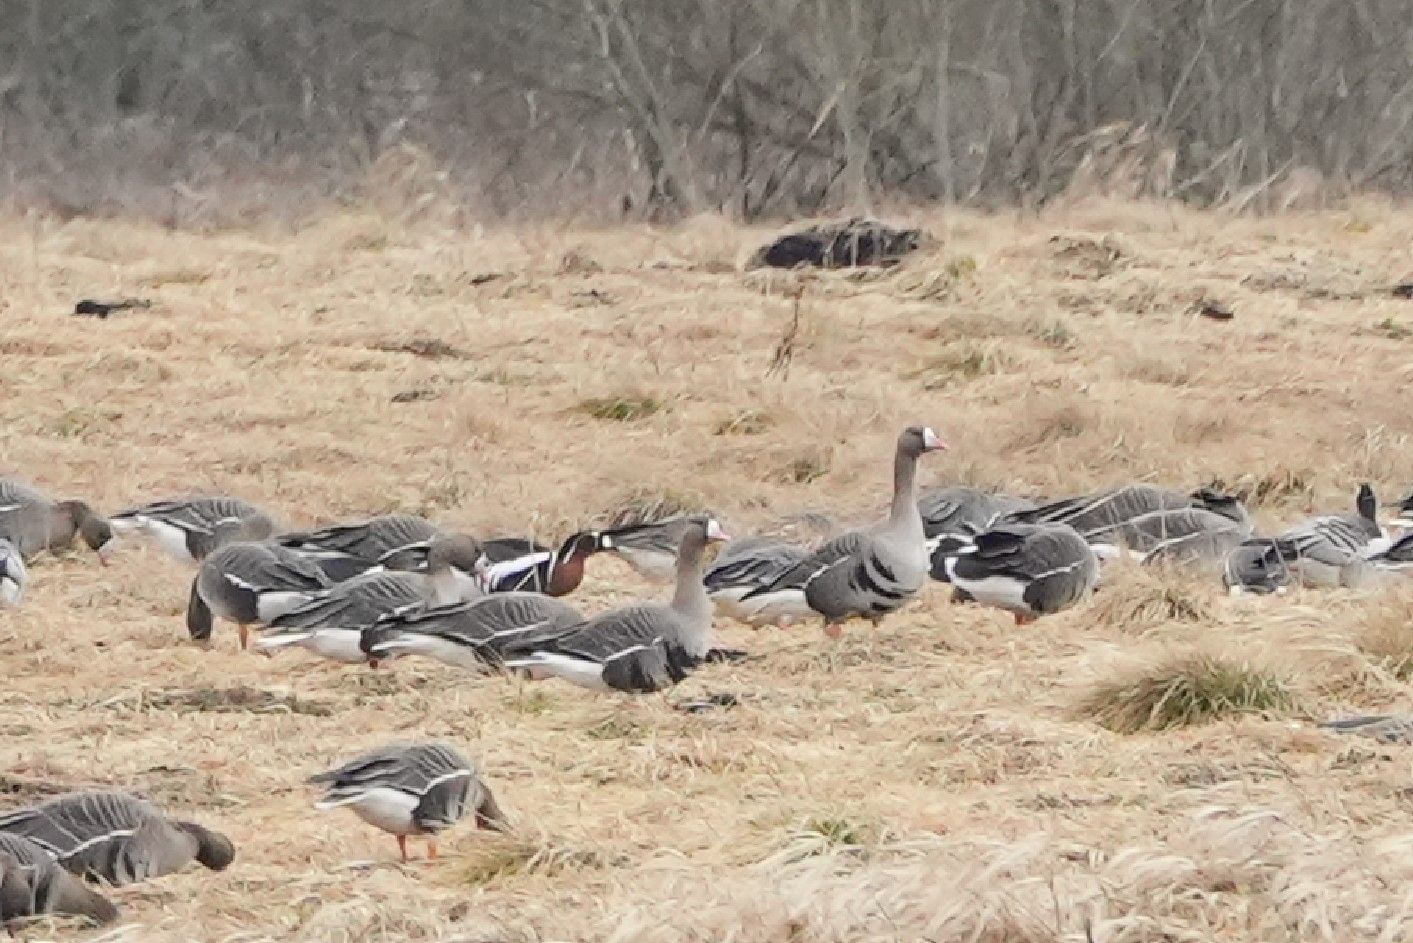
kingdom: Animalia
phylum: Chordata
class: Aves
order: Anseriformes
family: Anatidae
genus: Branta
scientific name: Branta ruficollis
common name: Red-breasted goose
